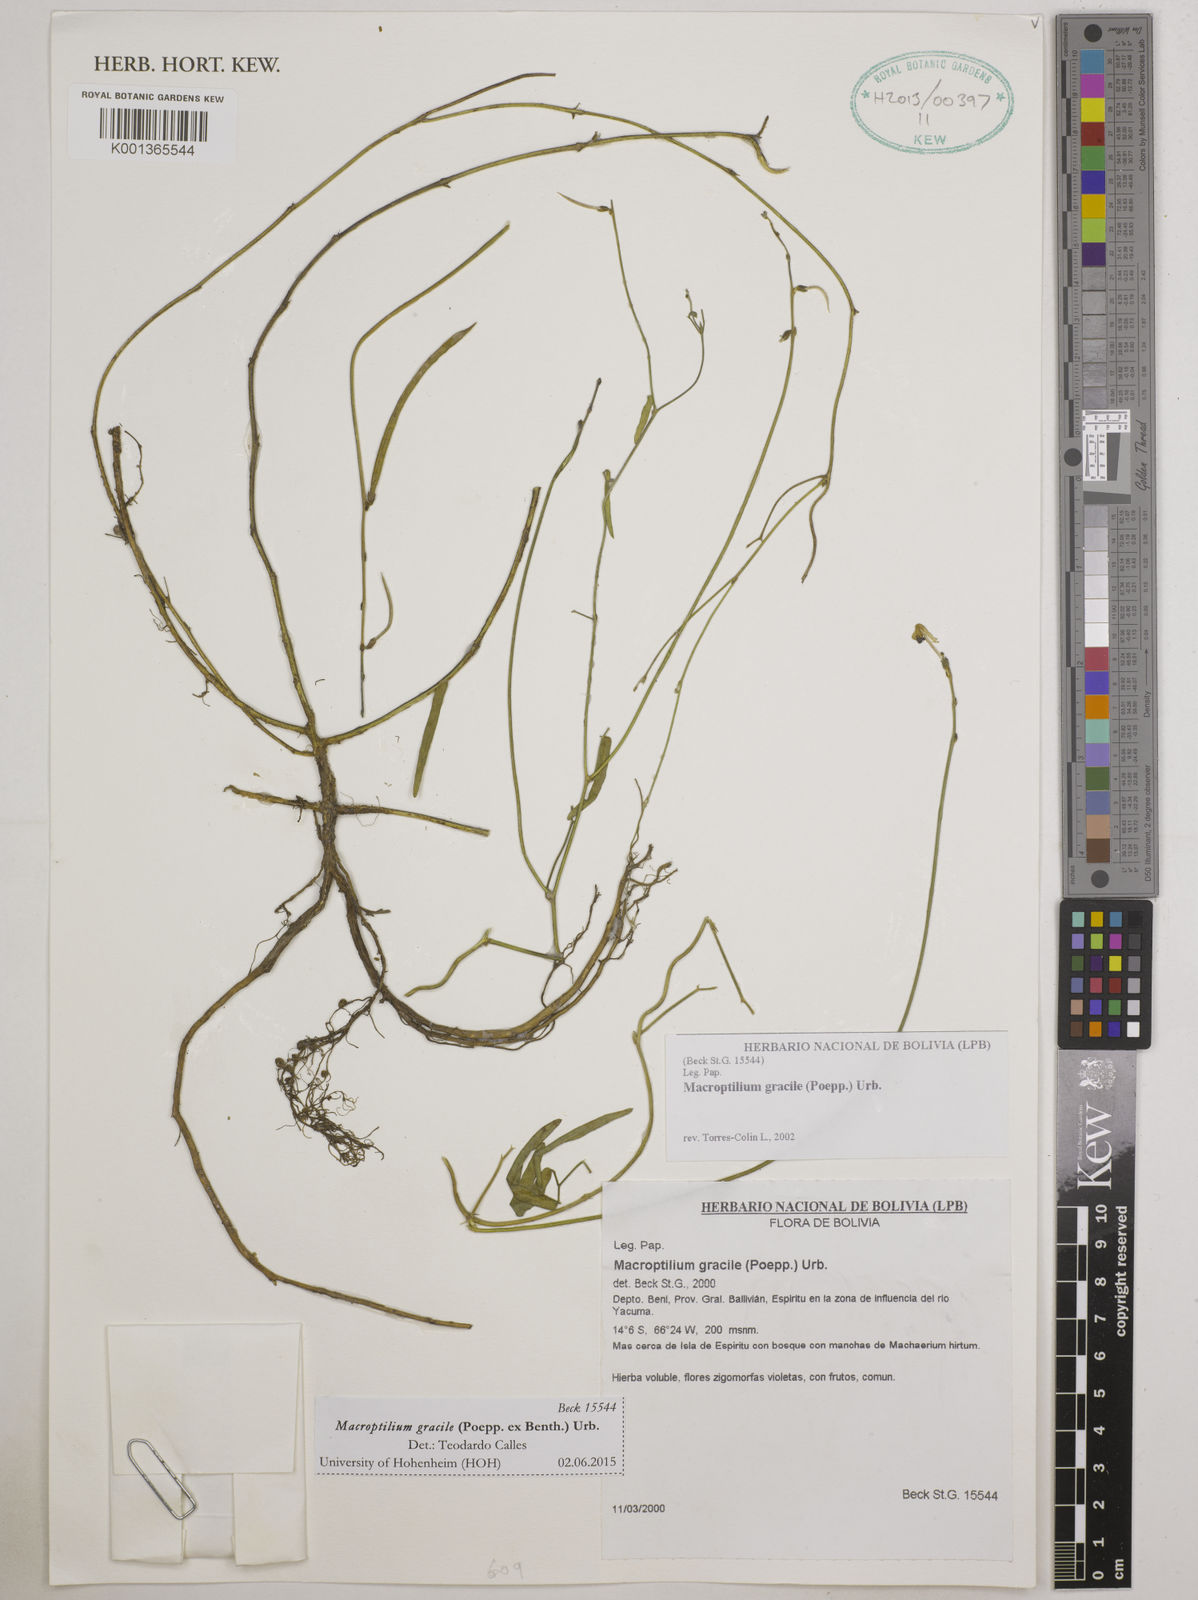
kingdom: Plantae
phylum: Tracheophyta
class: Magnoliopsida
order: Fabales
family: Fabaceae
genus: Macroptilium
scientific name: Macroptilium gracile
